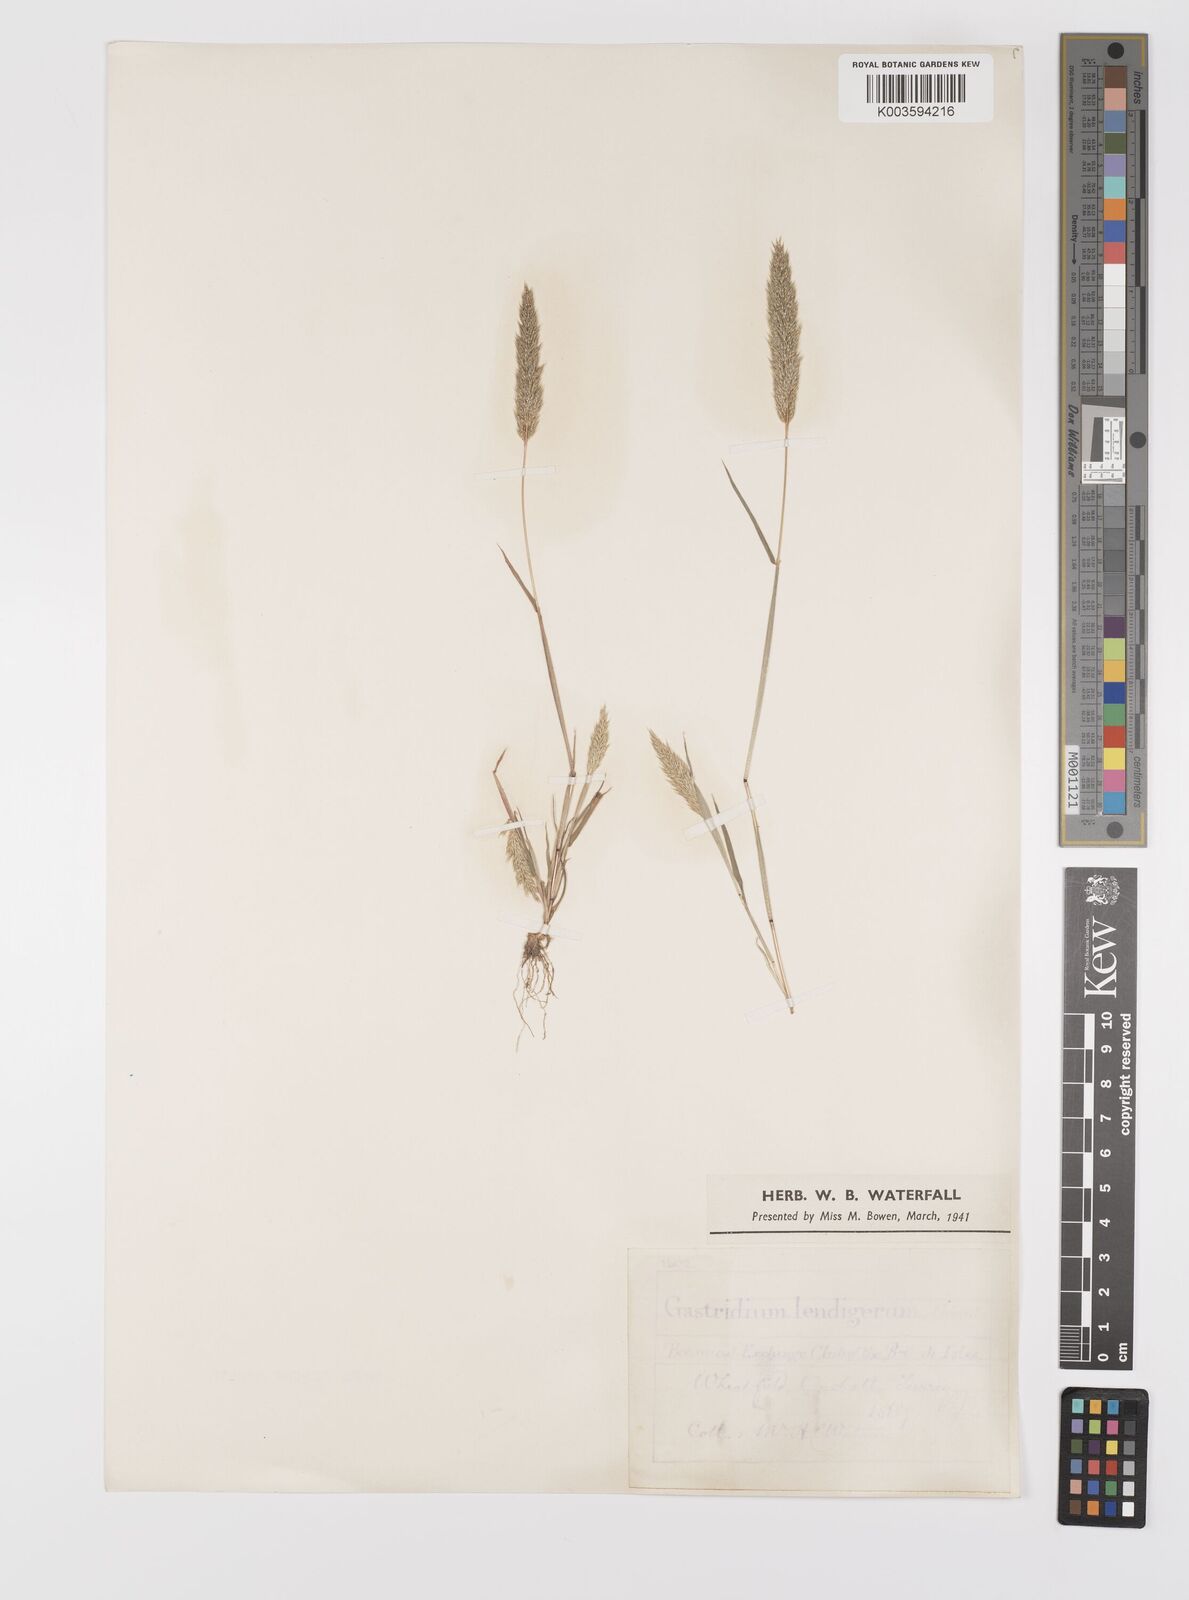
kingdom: Plantae
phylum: Tracheophyta
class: Liliopsida
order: Poales
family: Poaceae
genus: Gastridium
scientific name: Gastridium ventricosum
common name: Nit-grass
